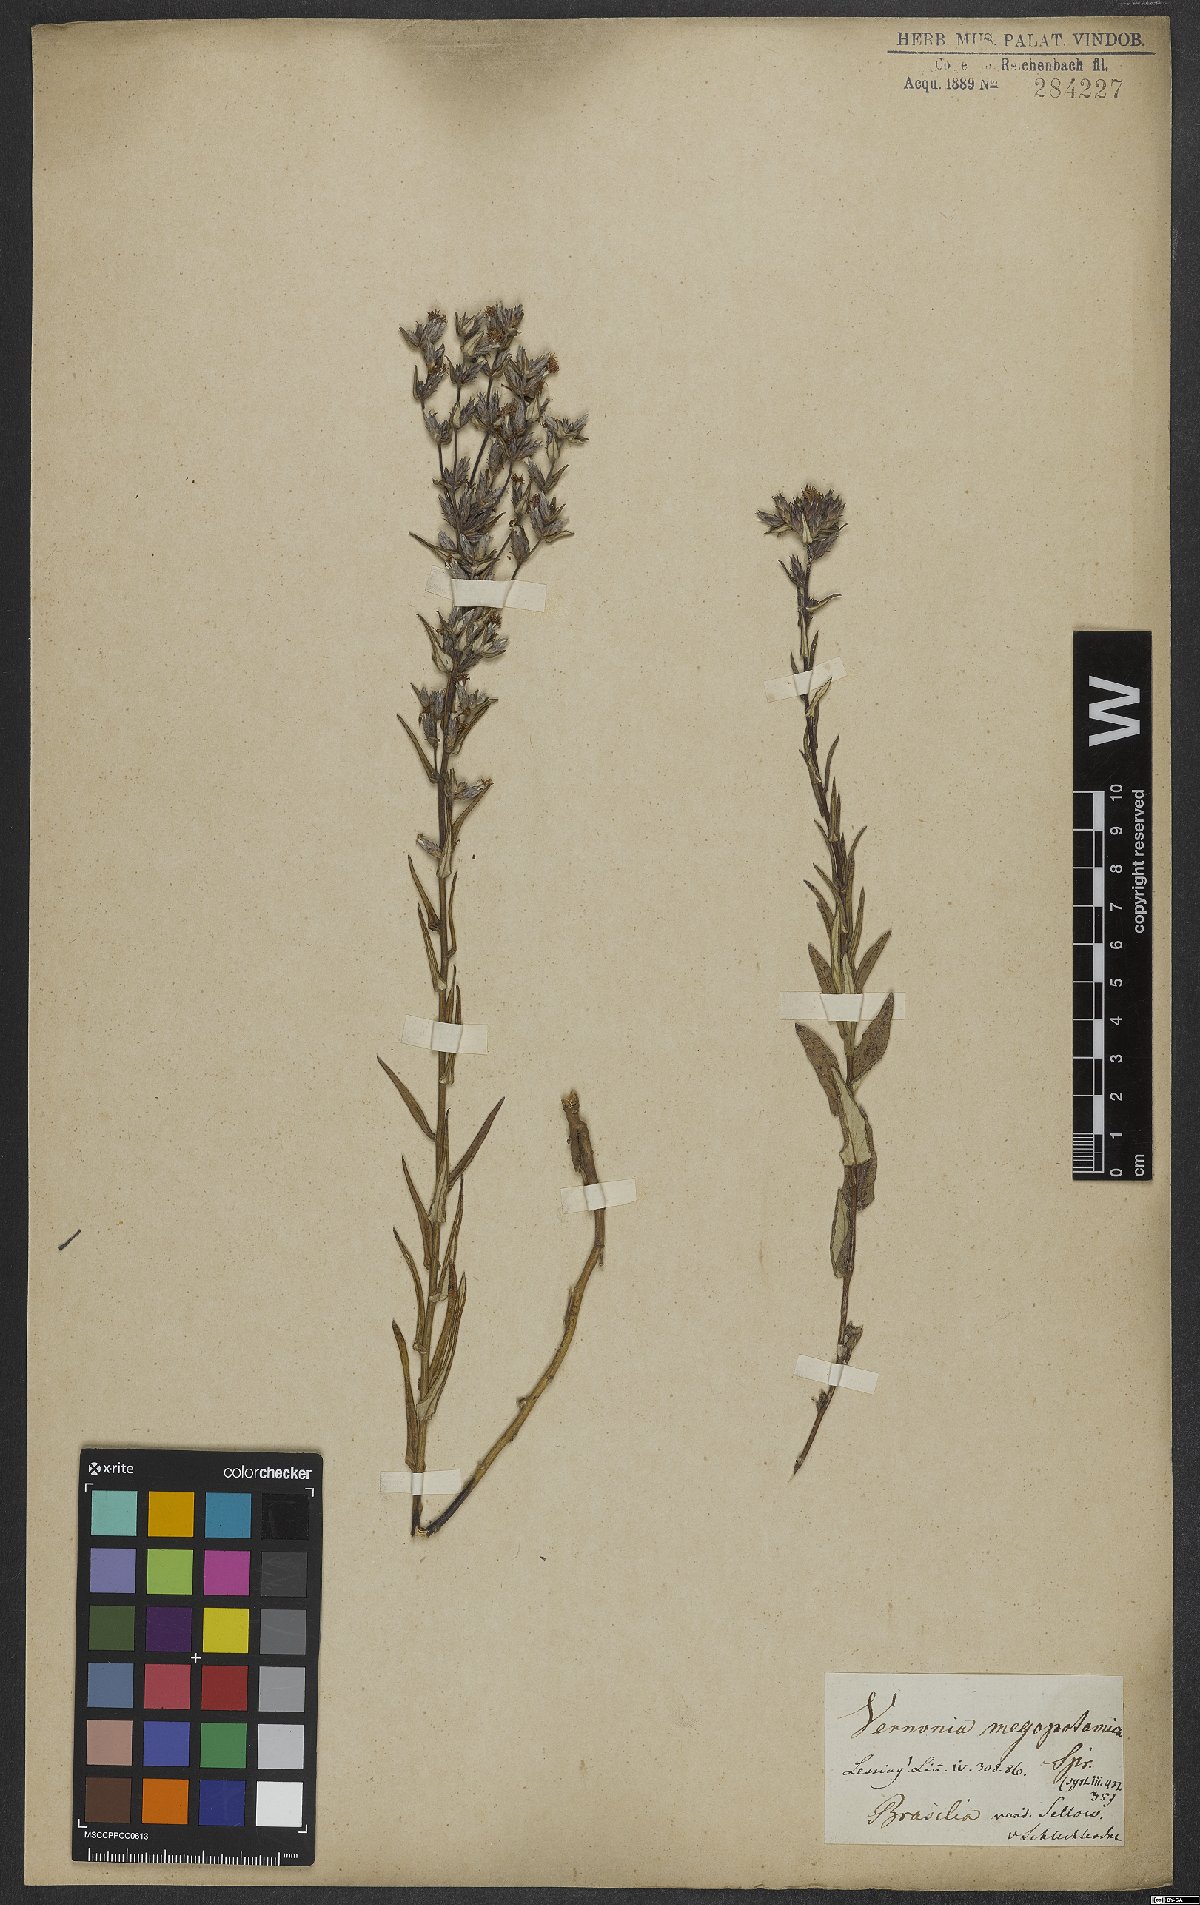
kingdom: Plantae
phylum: Tracheophyta
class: Magnoliopsida
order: Asterales
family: Asteraceae
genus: Stenocephalum
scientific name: Stenocephalum megapotamicum
